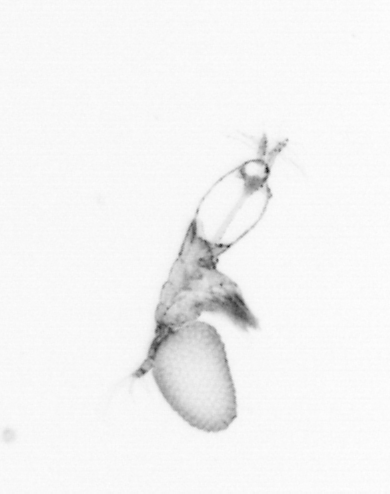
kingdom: Animalia
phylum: Arthropoda
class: Copepoda
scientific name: Copepoda
